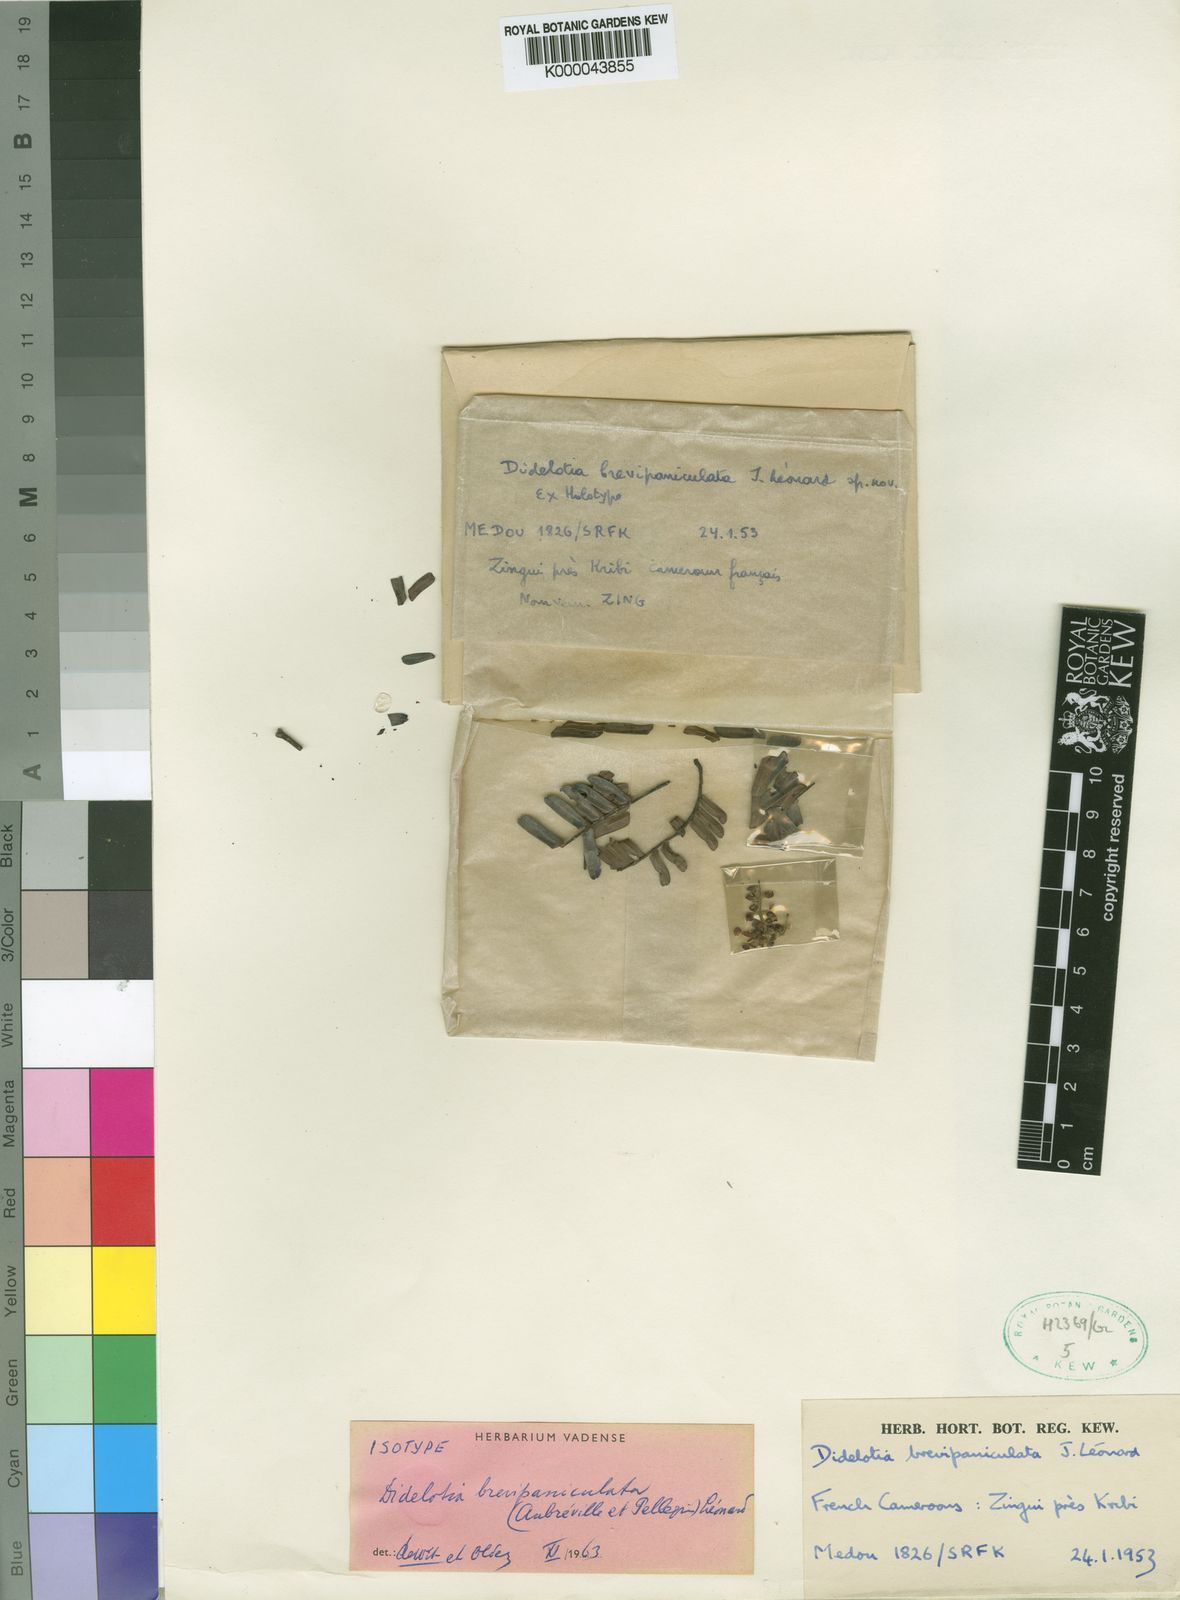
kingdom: Plantae
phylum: Tracheophyta
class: Magnoliopsida
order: Fabales
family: Fabaceae
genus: Didelotia
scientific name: Didelotia
